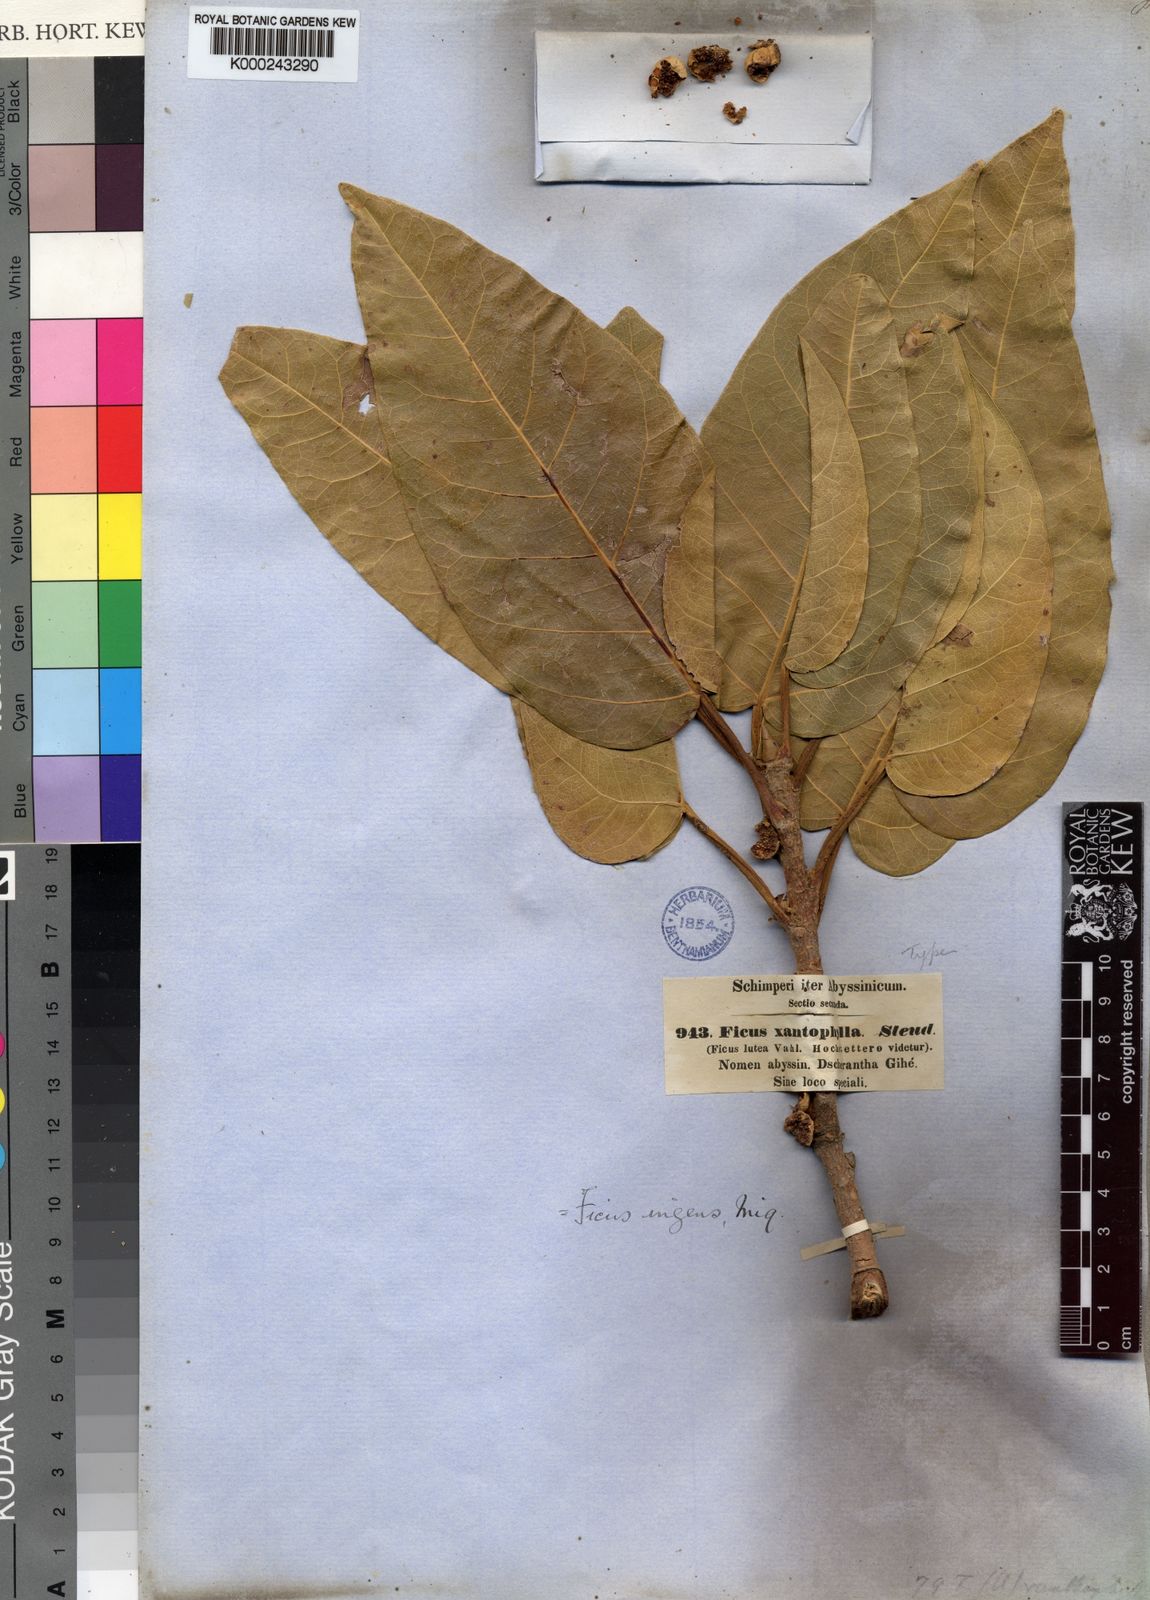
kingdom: Plantae
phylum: Tracheophyta
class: Magnoliopsida
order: Rosales
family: Moraceae
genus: Ficus
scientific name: Ficus ingens
